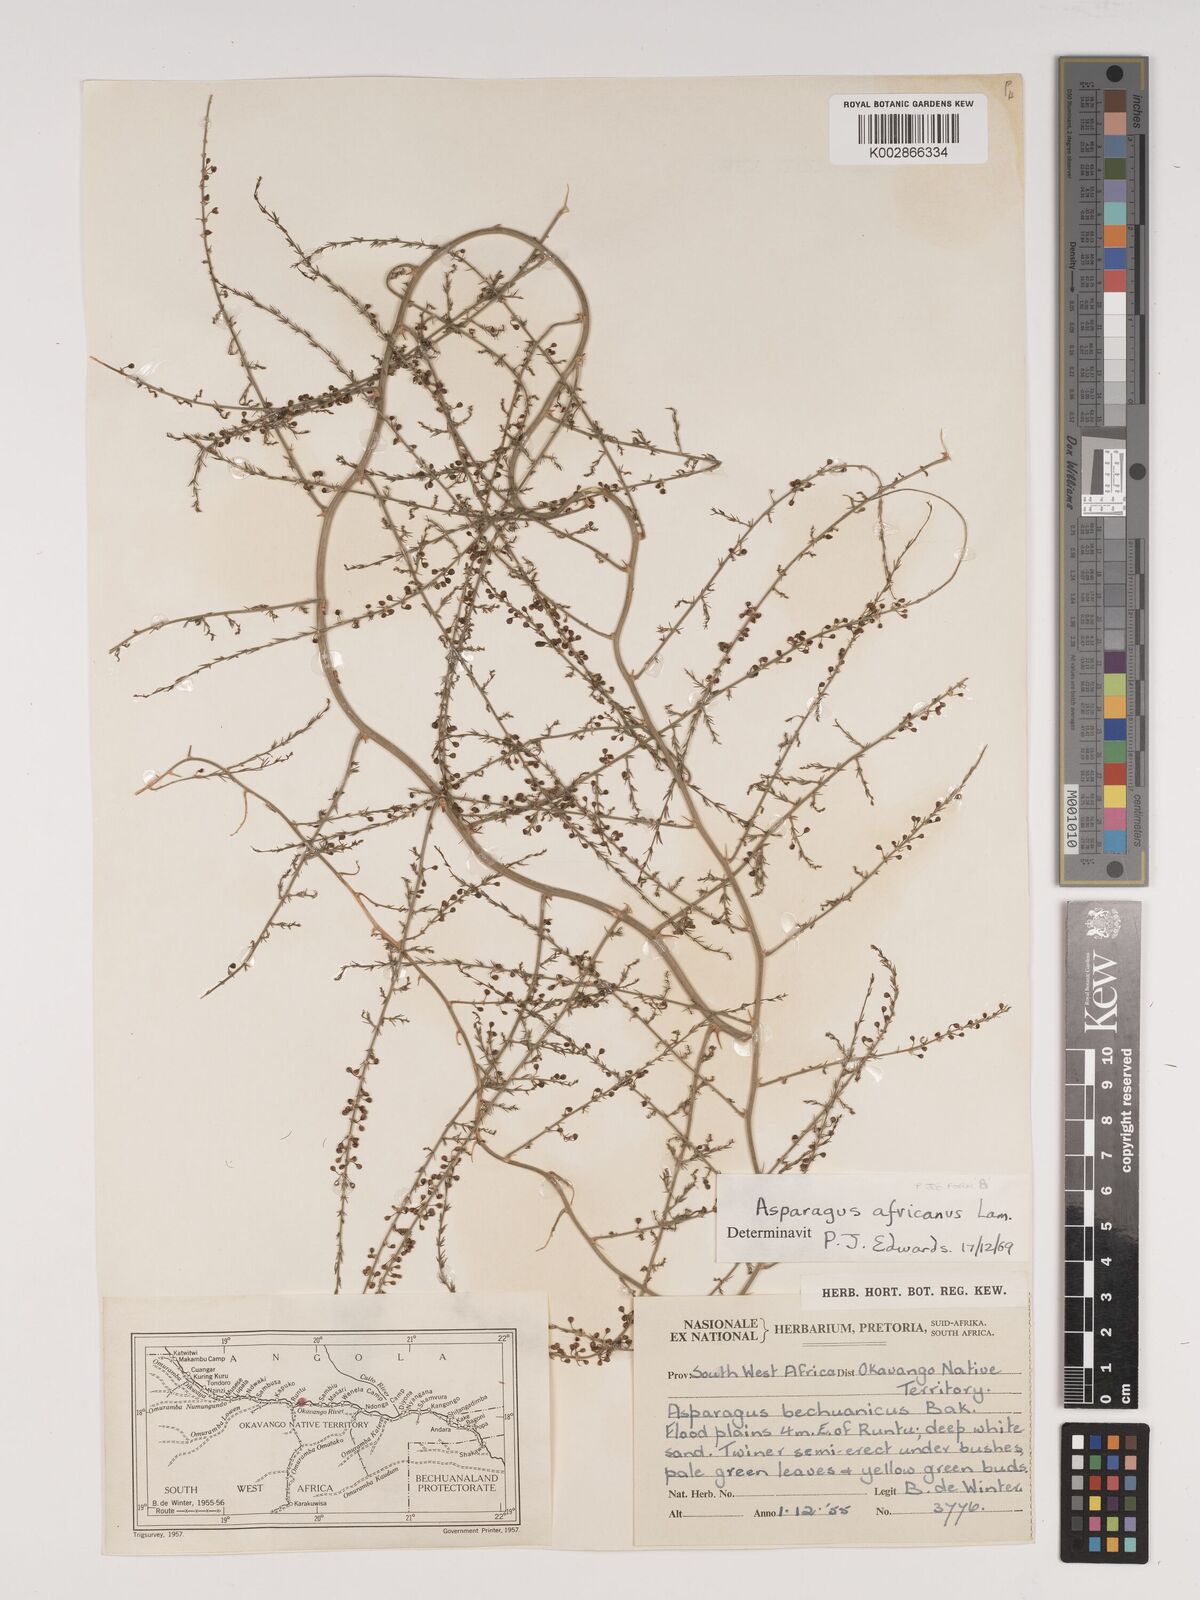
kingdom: Plantae
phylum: Tracheophyta
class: Liliopsida
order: Asparagales
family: Asparagaceae
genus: Asparagus
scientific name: Asparagus africanus
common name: Asparagus-fern
